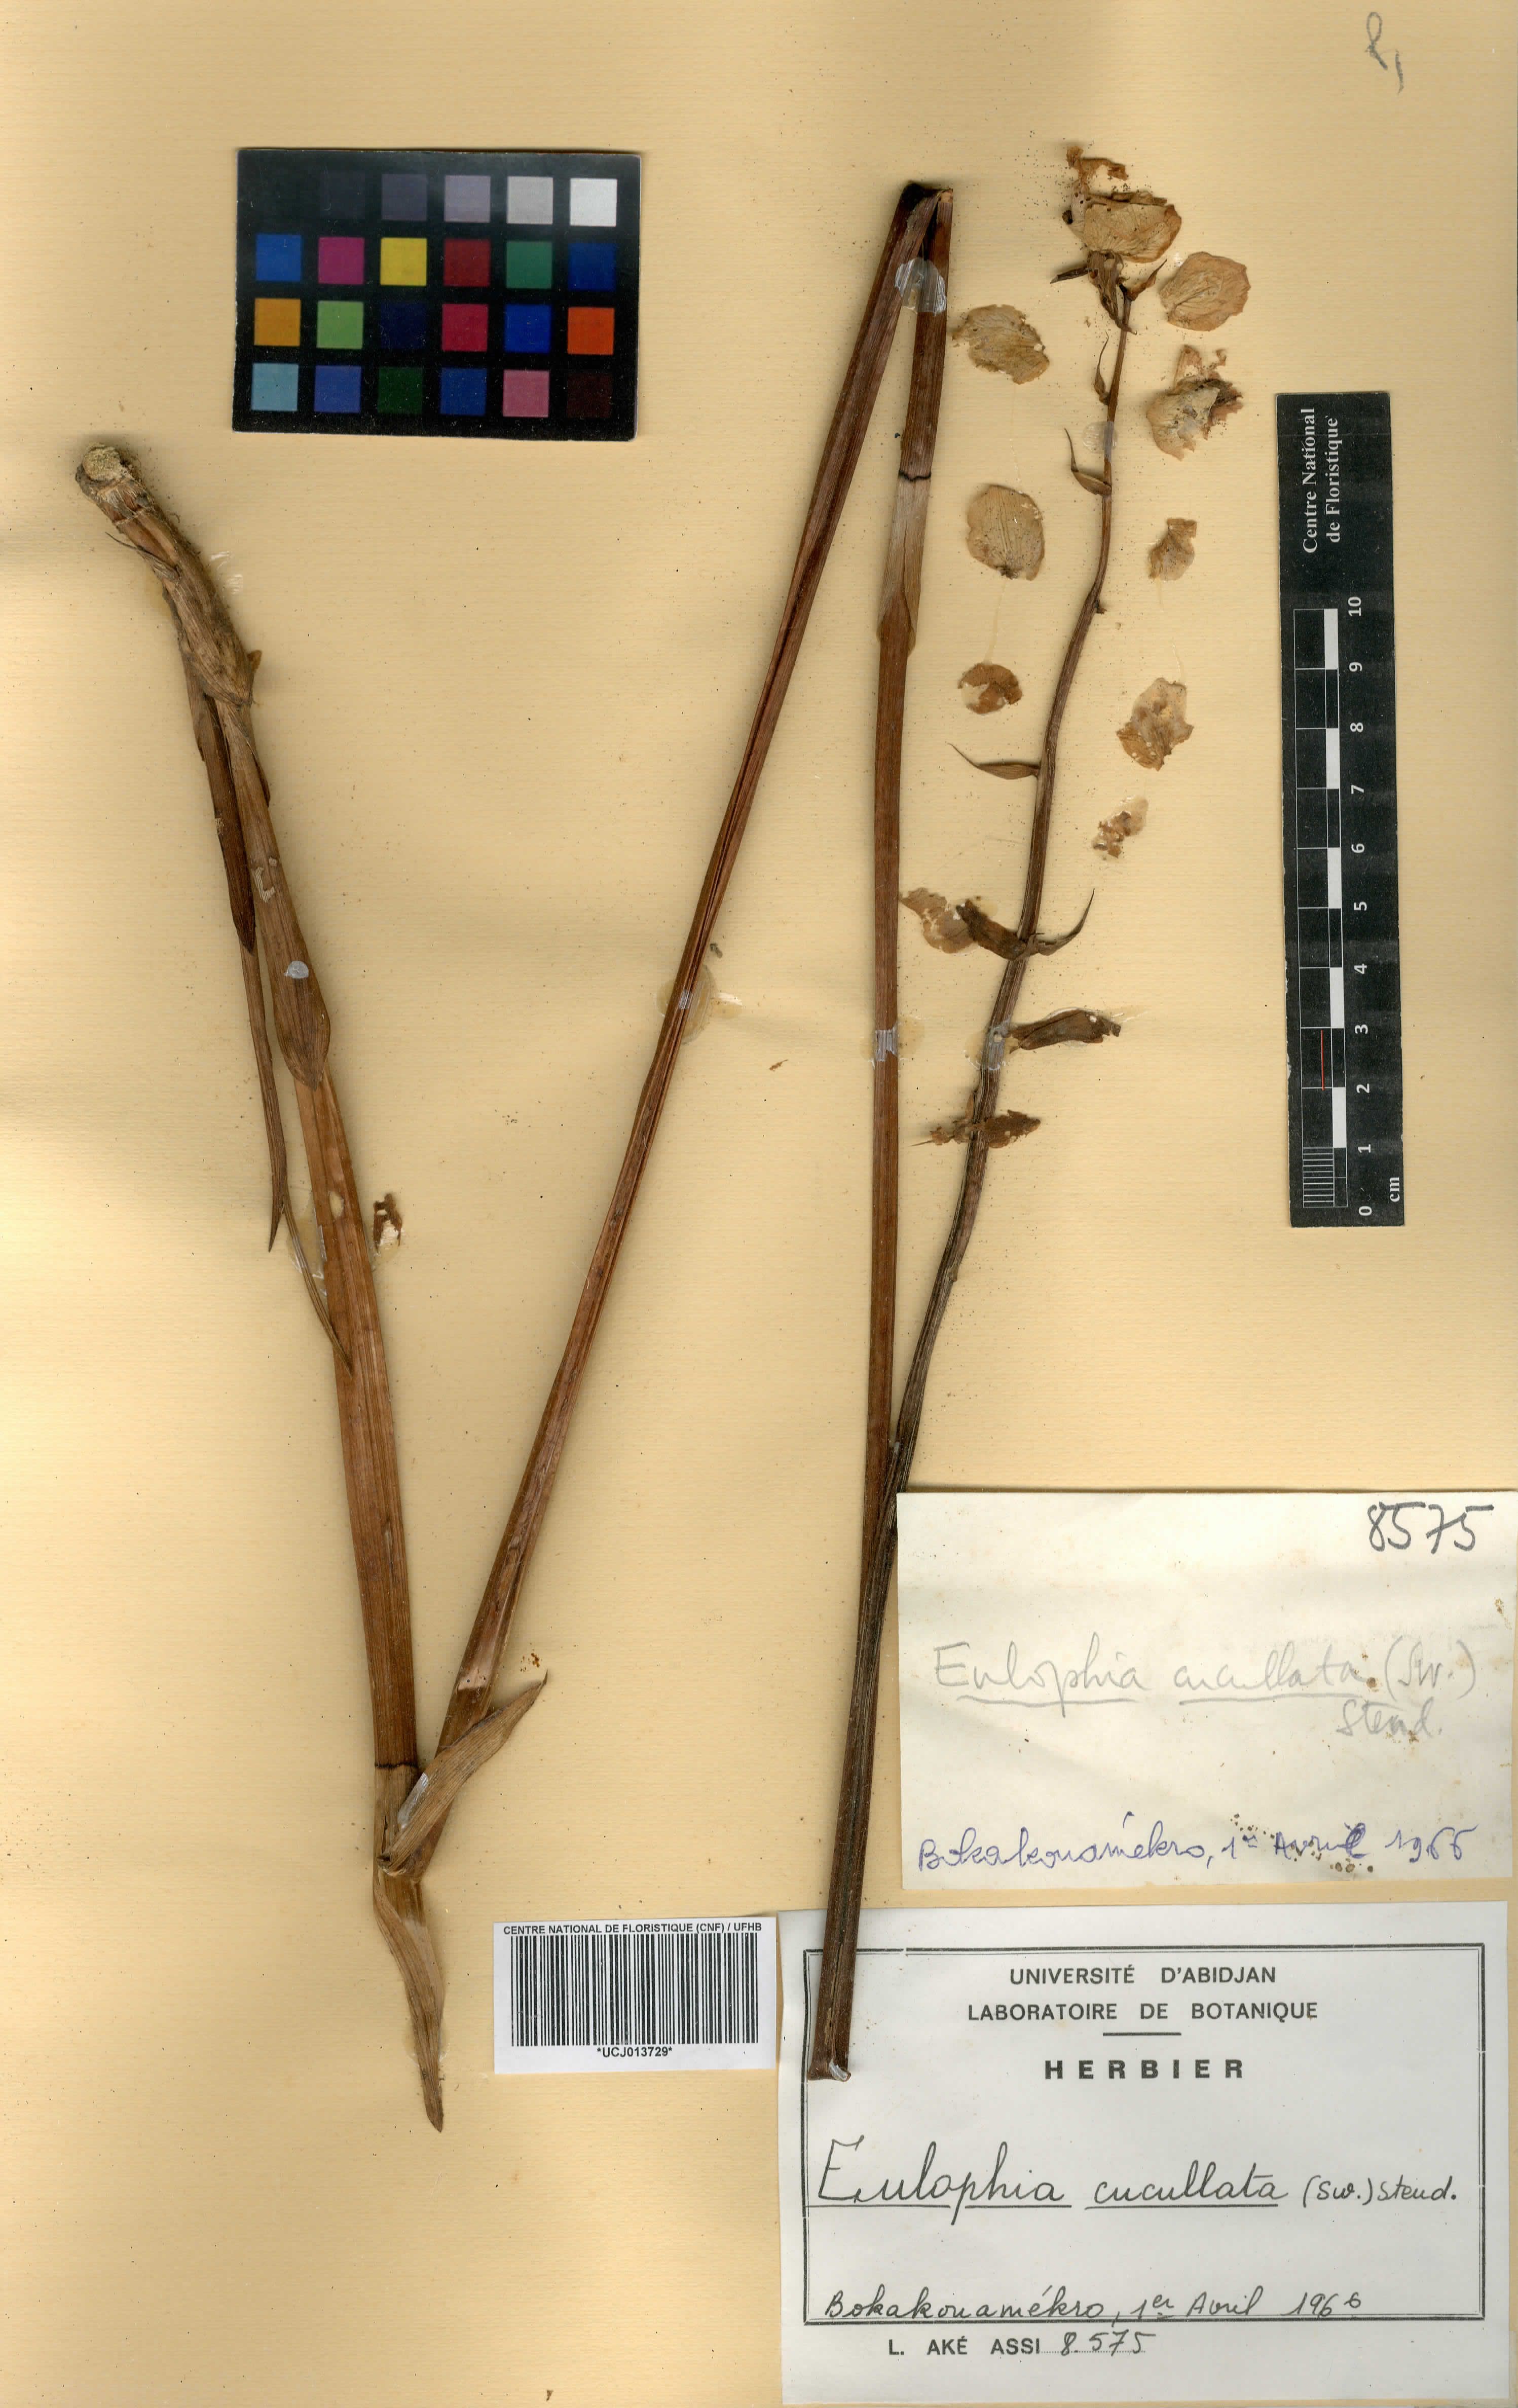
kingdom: Plantae
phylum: Tracheophyta
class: Liliopsida
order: Asparagales
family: Orchidaceae
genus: Eulophia
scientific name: Eulophia cucullata
